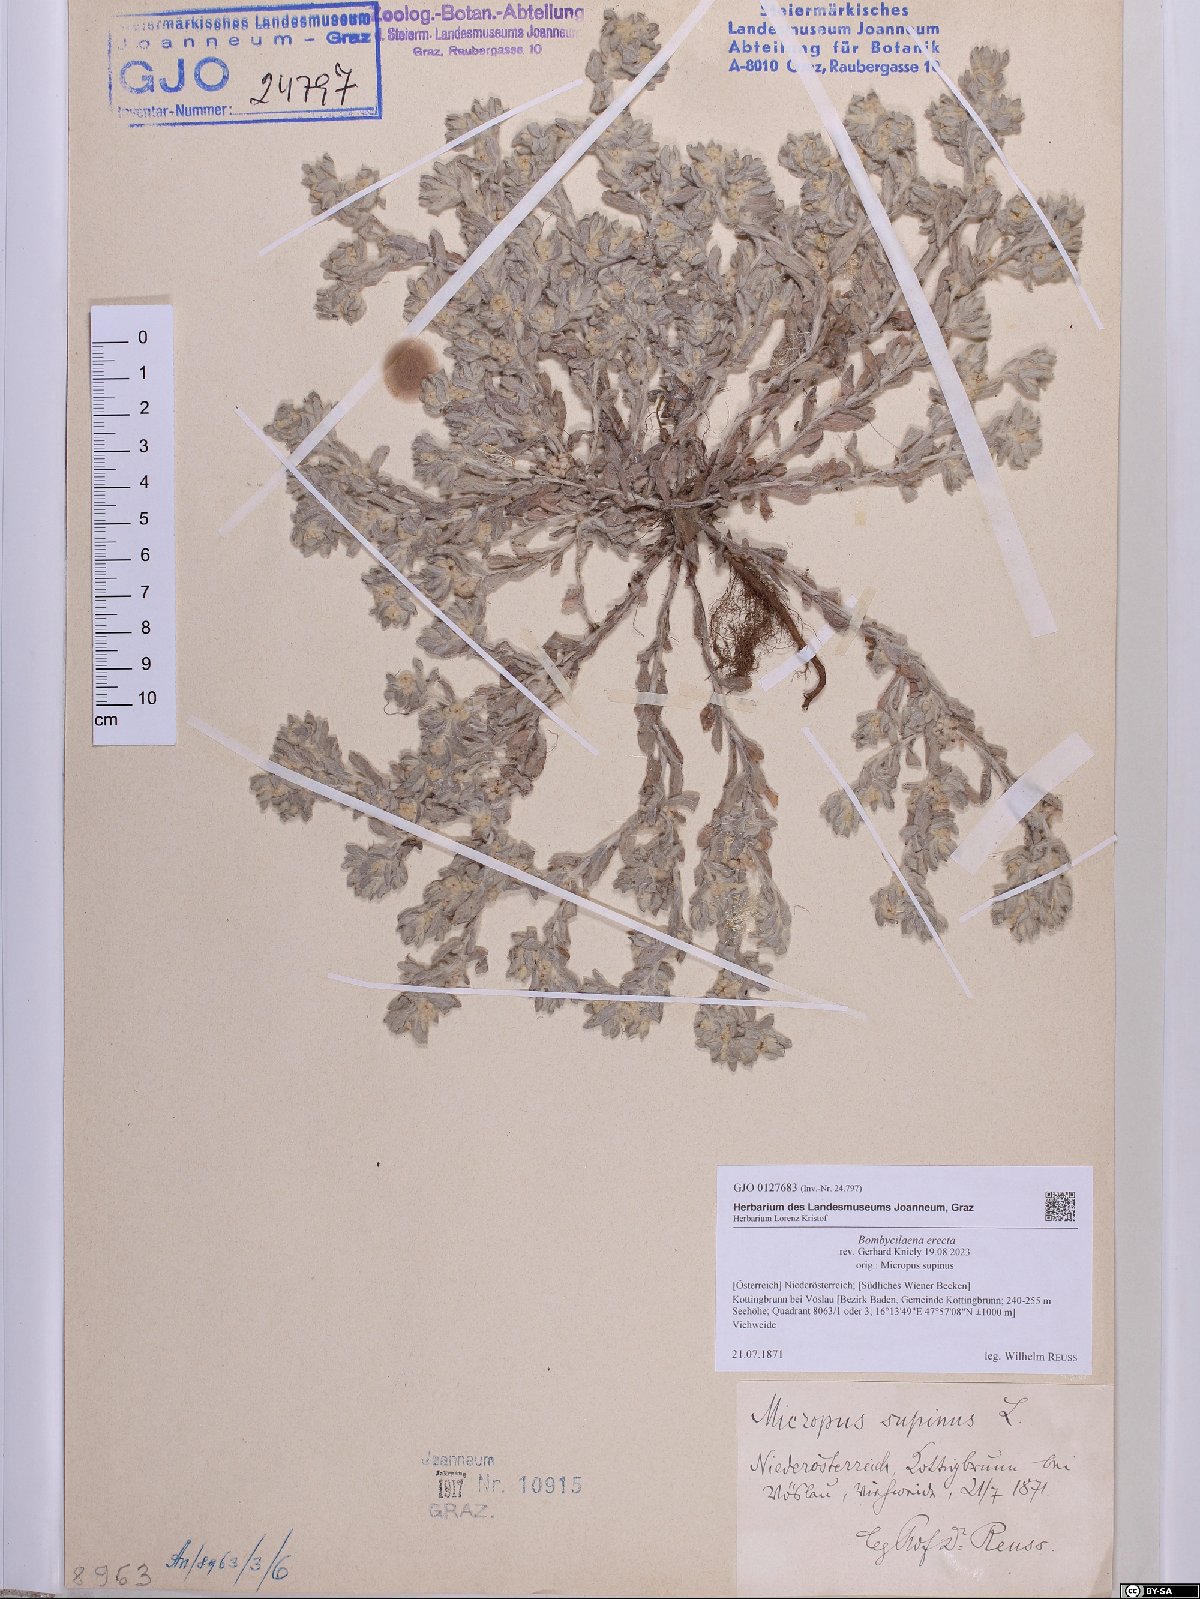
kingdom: Plantae
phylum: Tracheophyta
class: Magnoliopsida
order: Asterales
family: Asteraceae
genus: Bombycilaena
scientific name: Bombycilaena erecta
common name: Micropus
